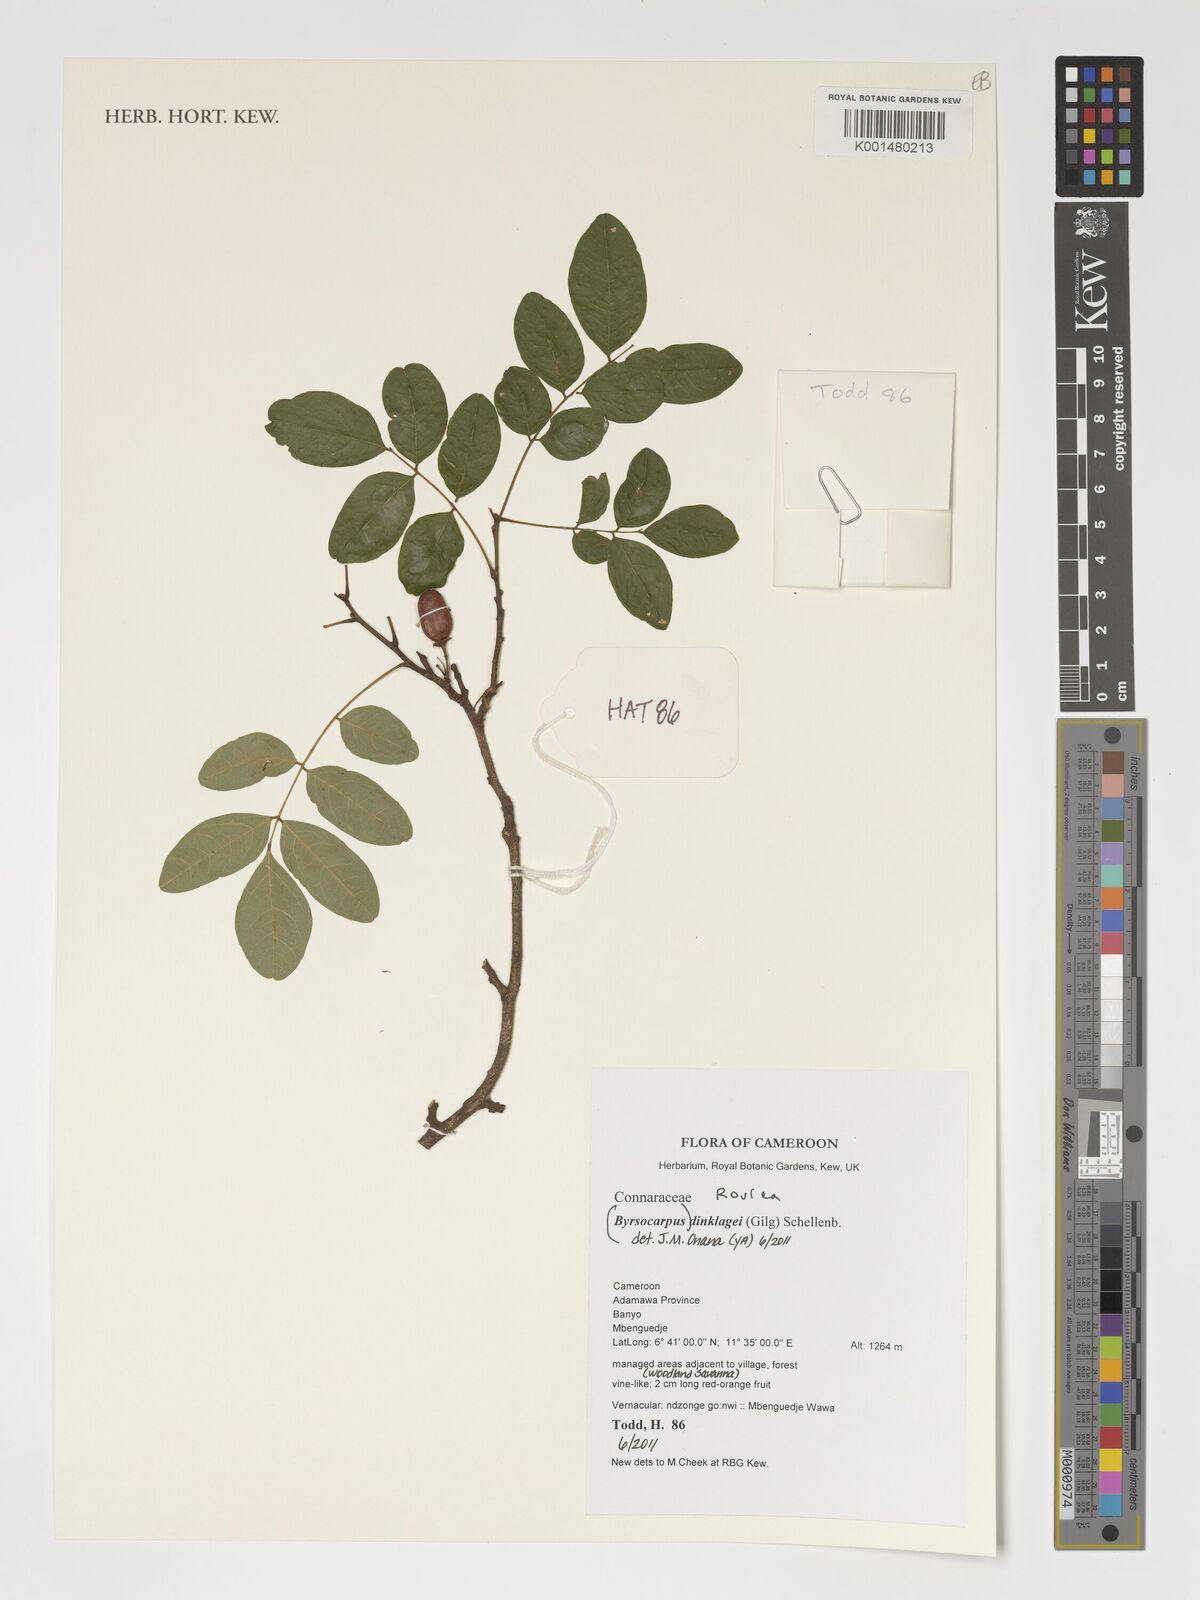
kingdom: Plantae
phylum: Tracheophyta
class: Magnoliopsida
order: Oxalidales
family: Connaraceae
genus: Rourea
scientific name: Rourea coccinea
